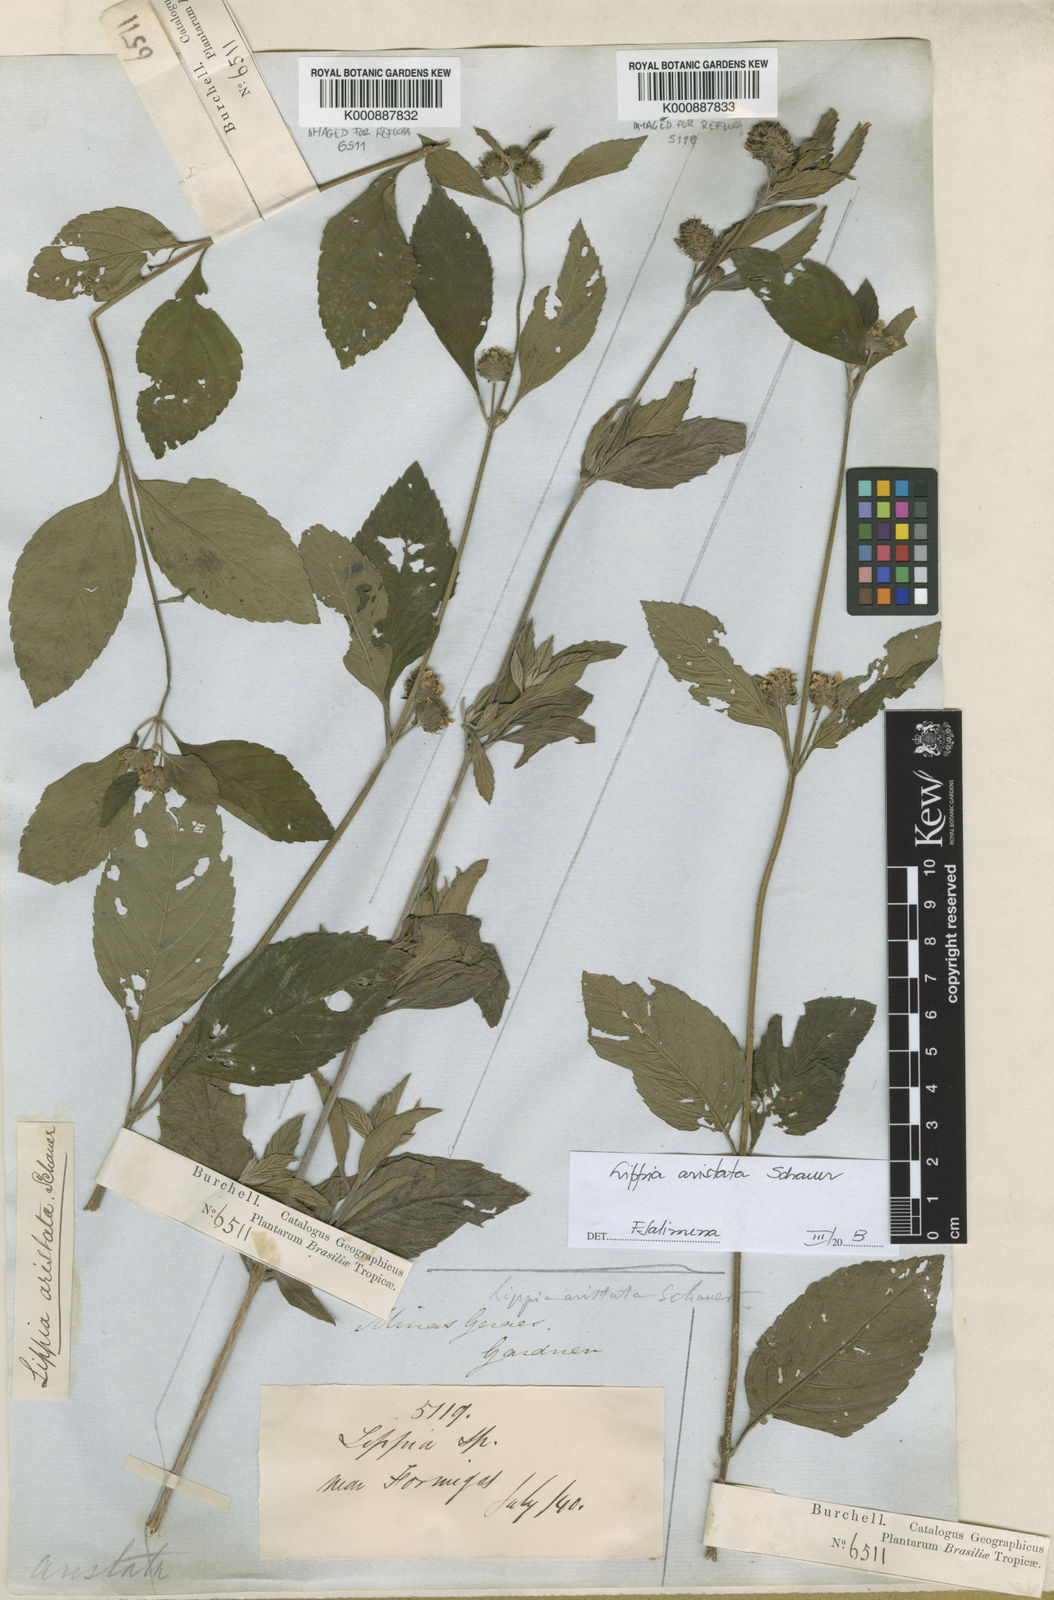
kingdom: Plantae
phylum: Tracheophyta
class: Magnoliopsida
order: Lamiales
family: Verbenaceae
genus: Lippia
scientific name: Lippia aristata
